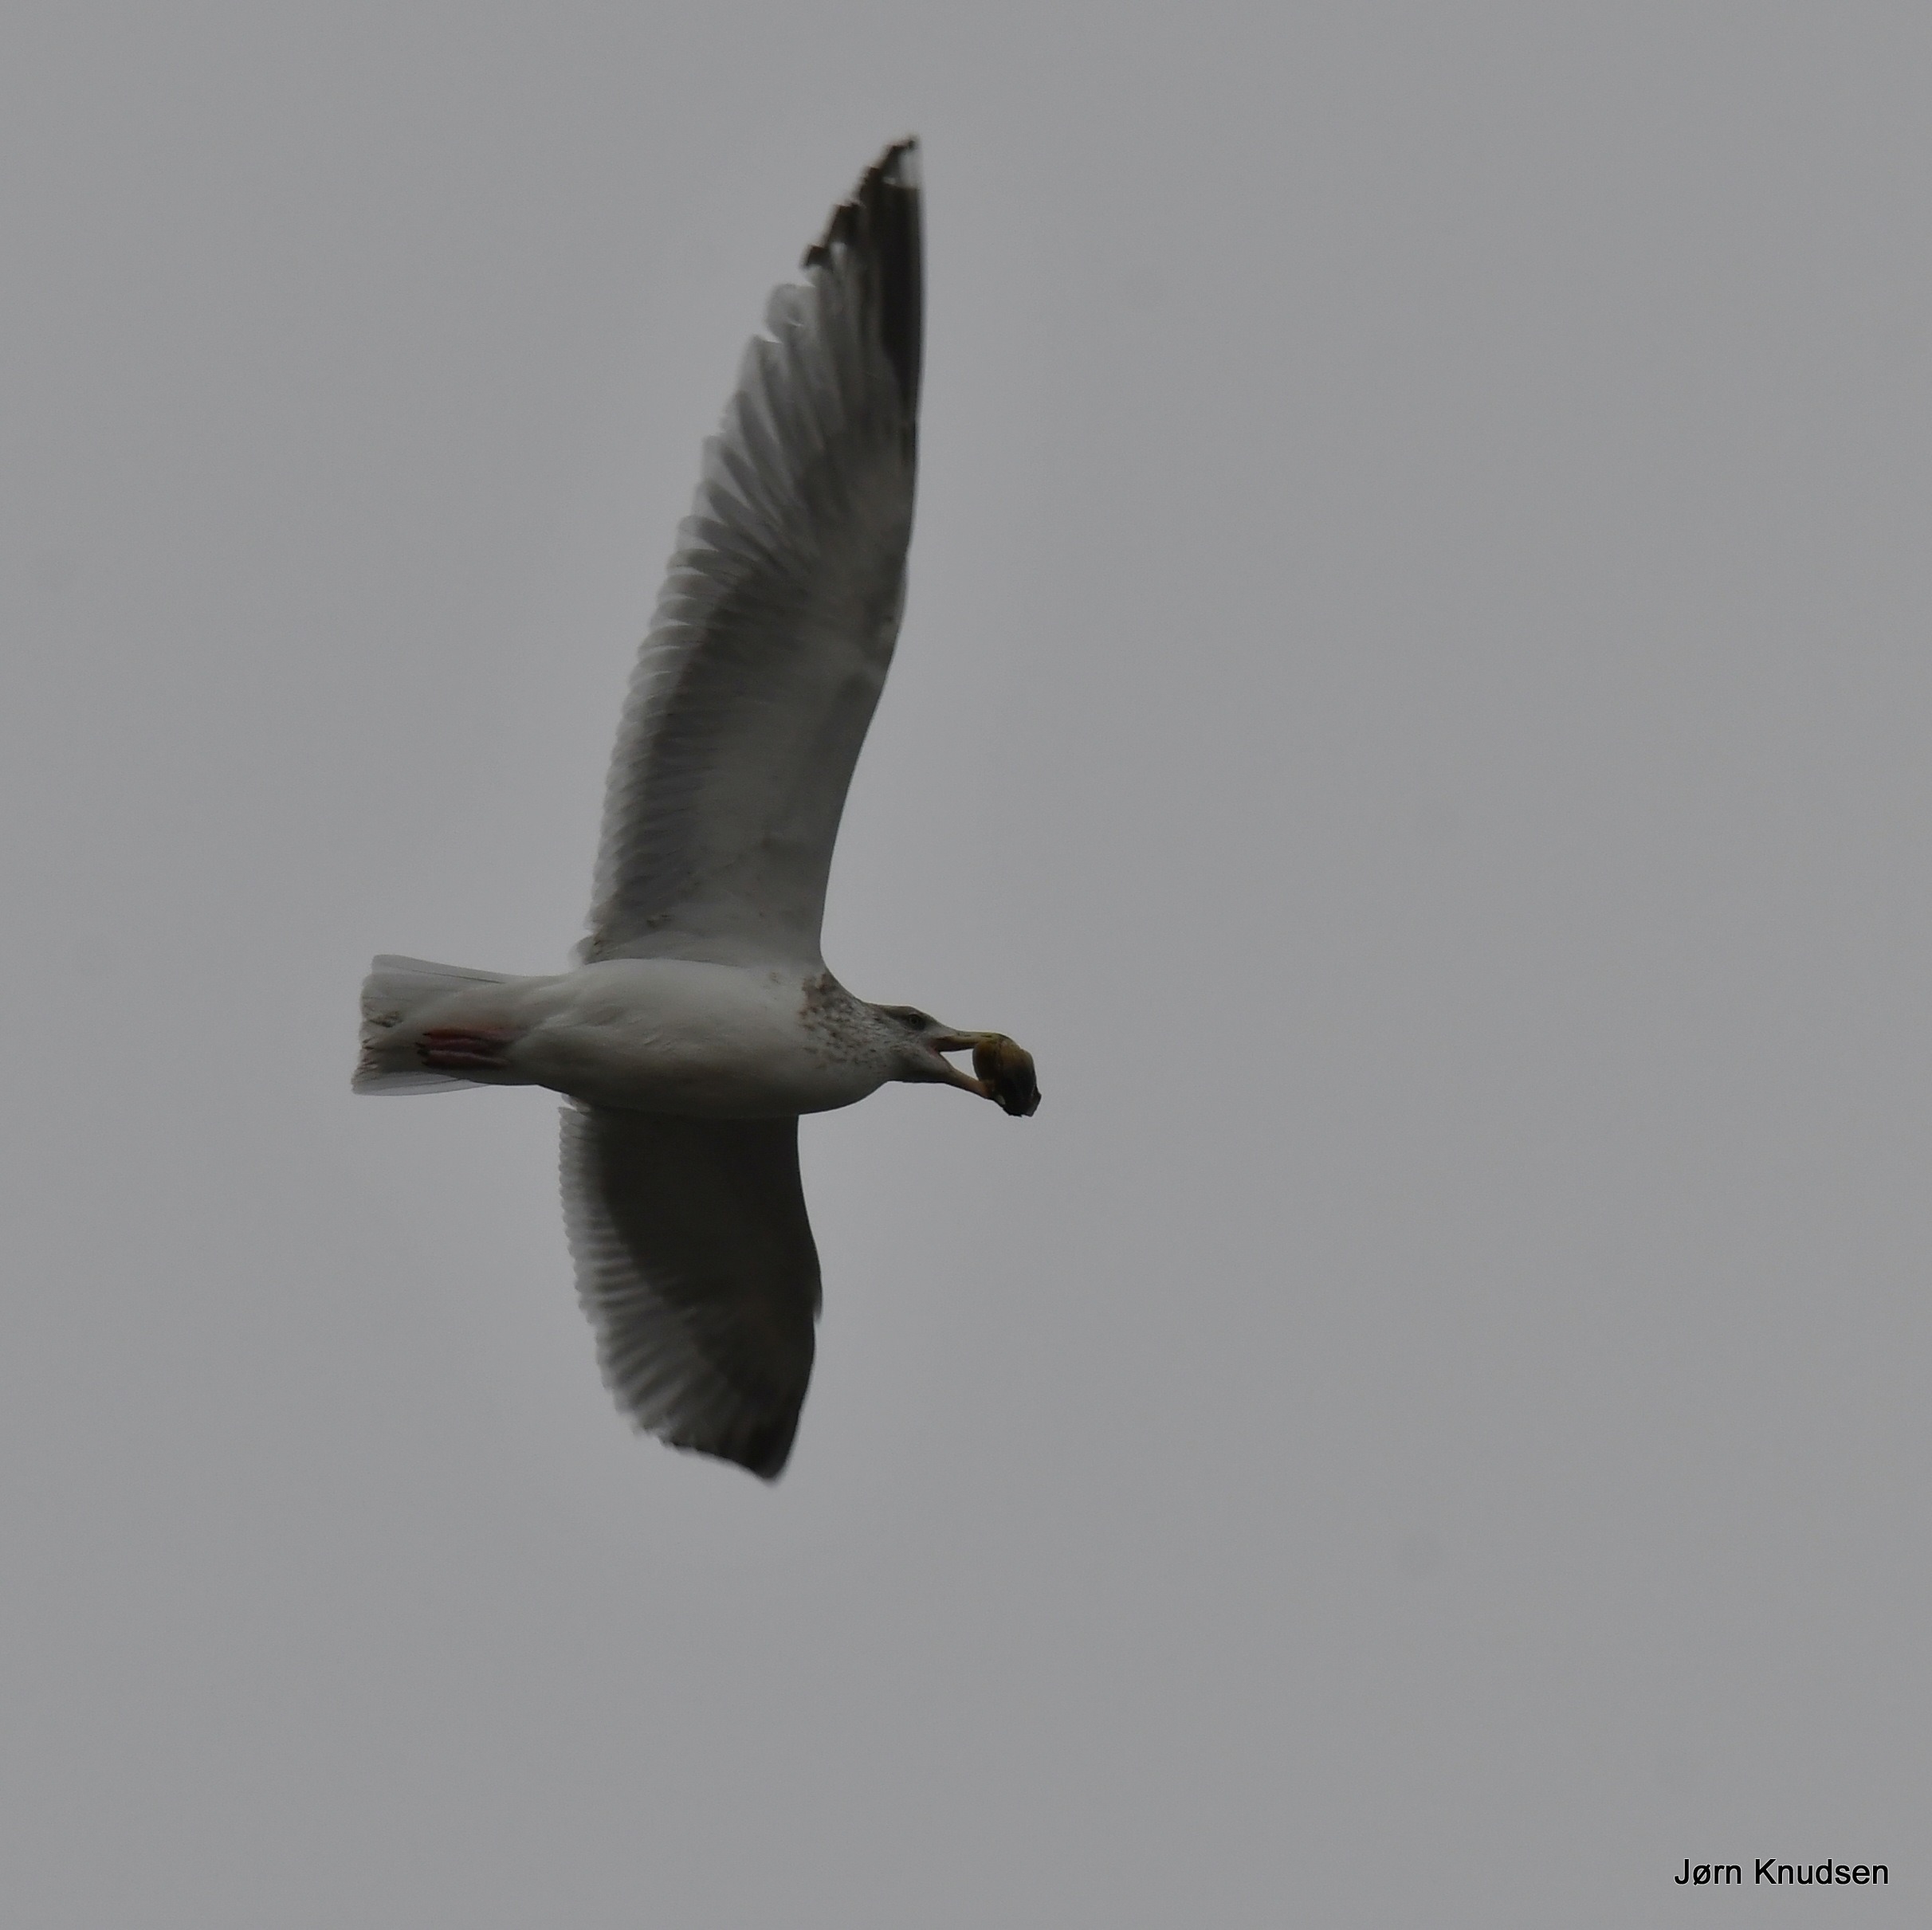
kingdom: Animalia
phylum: Chordata
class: Aves
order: Charadriiformes
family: Laridae
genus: Larus
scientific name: Larus argentatus
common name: Sølvmåge
